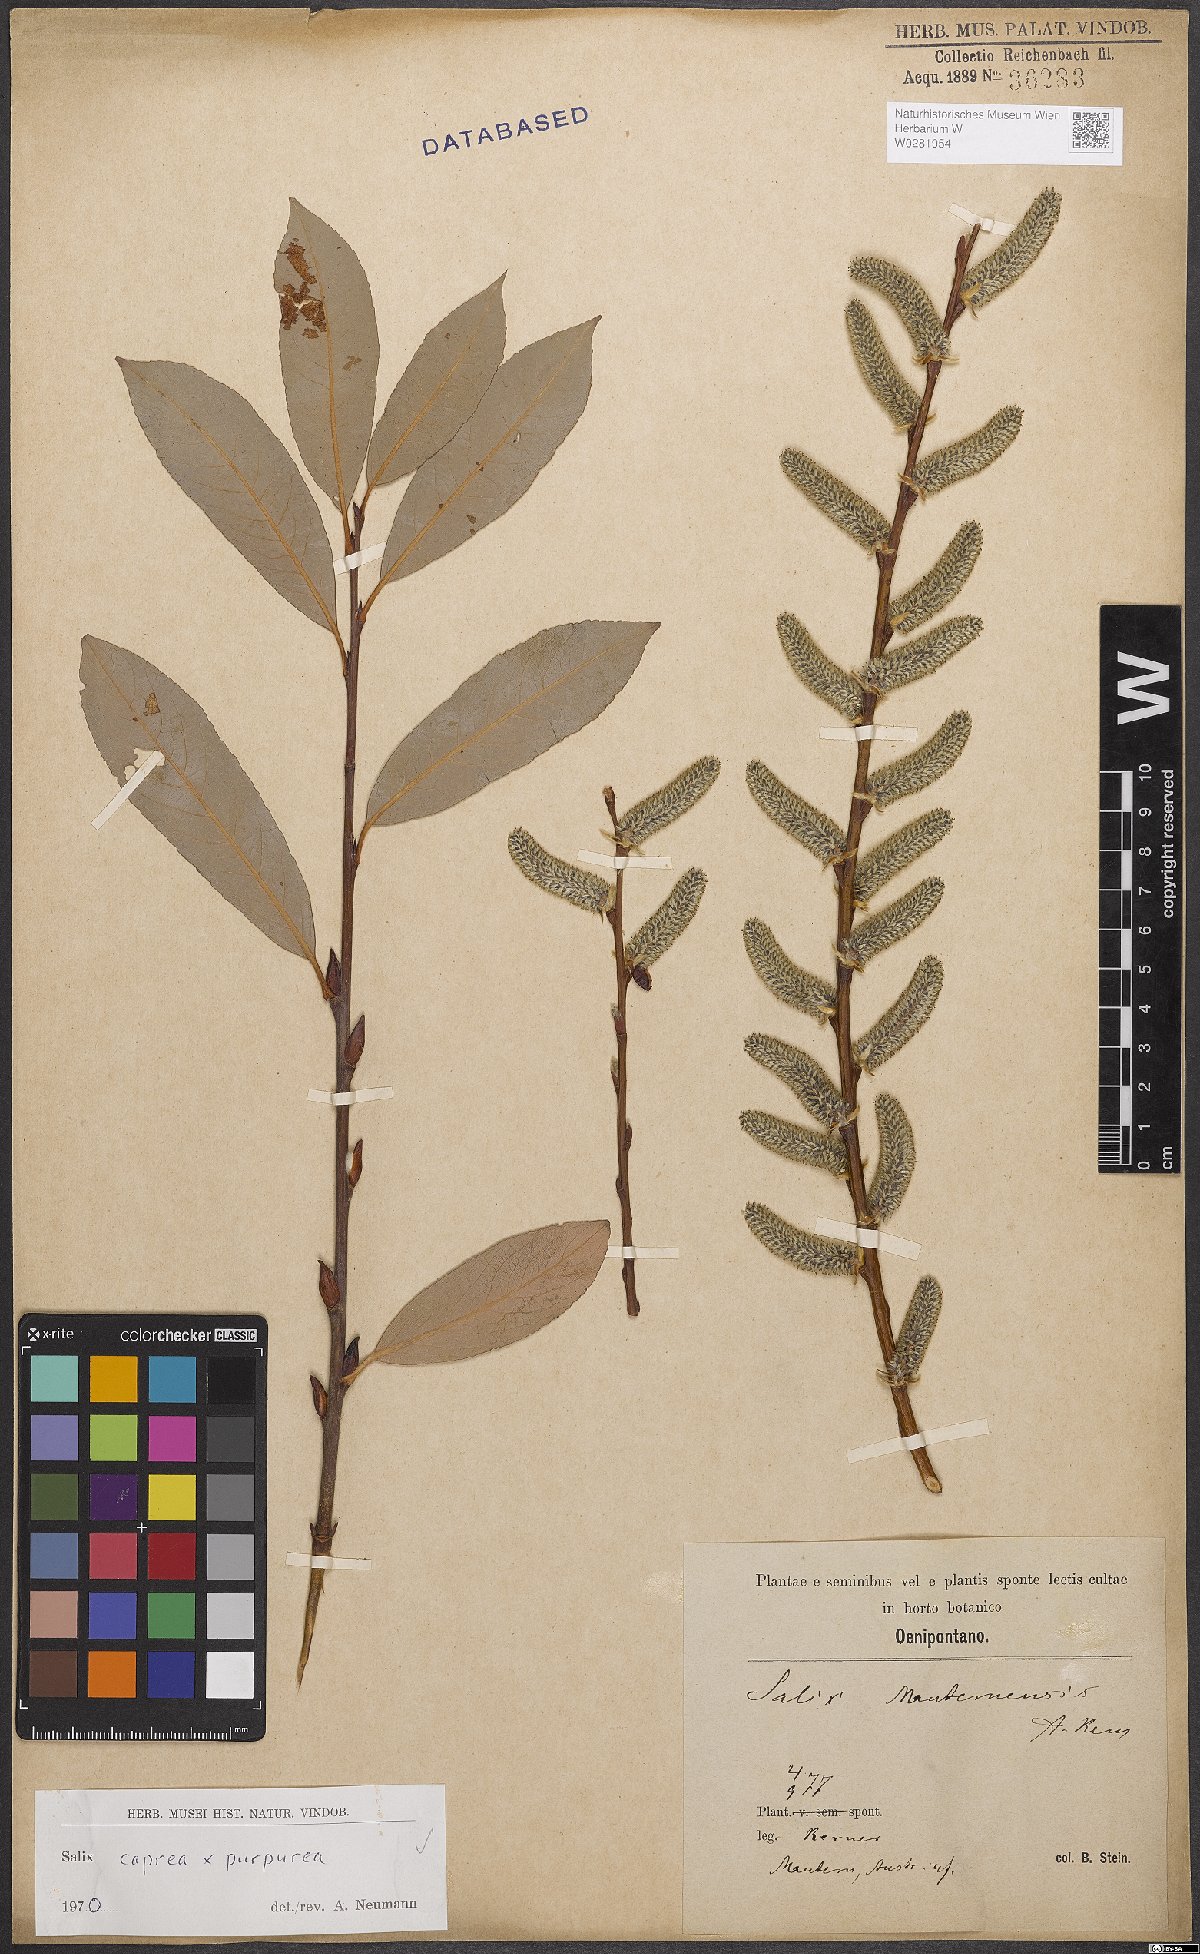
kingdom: Plantae
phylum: Tracheophyta
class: Magnoliopsida
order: Malpighiales
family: Salicaceae
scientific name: Salicaceae
